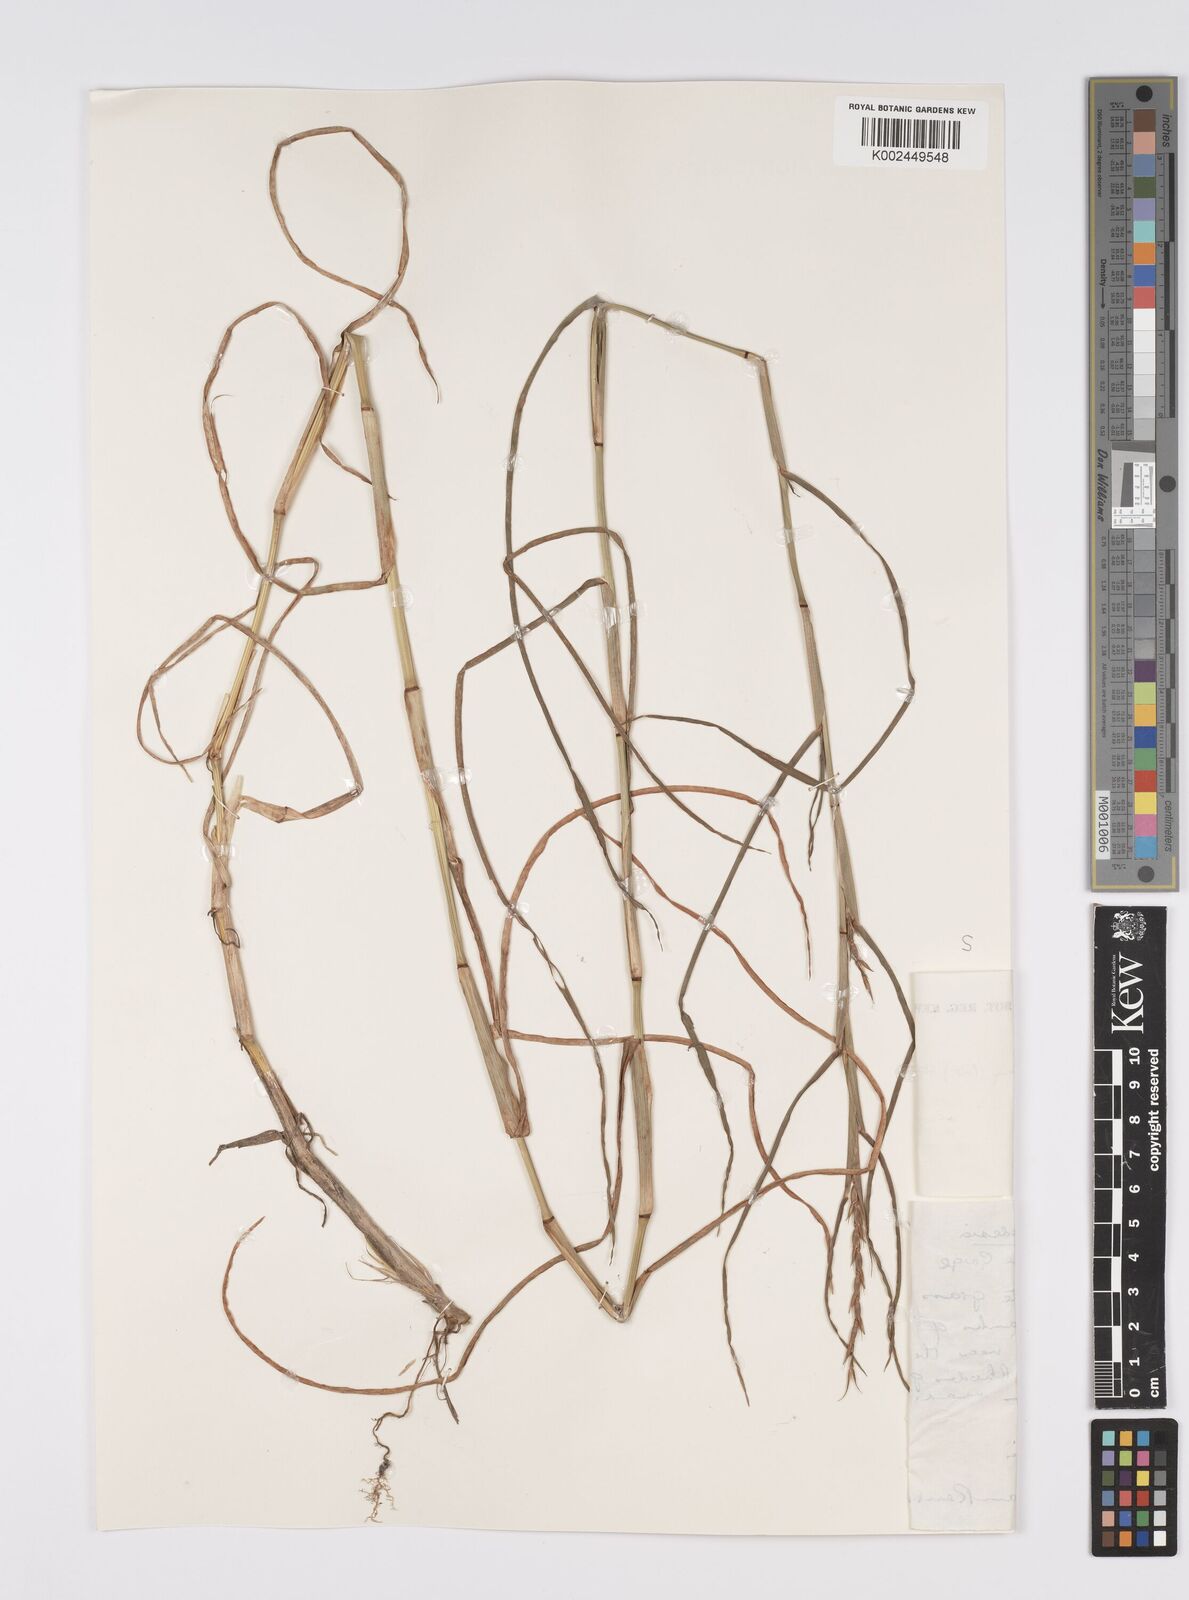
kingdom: Plantae
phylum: Tracheophyta
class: Liliopsida
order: Poales
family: Poaceae
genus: Hemarthria
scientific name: Hemarthria altissima
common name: African jointgrass
